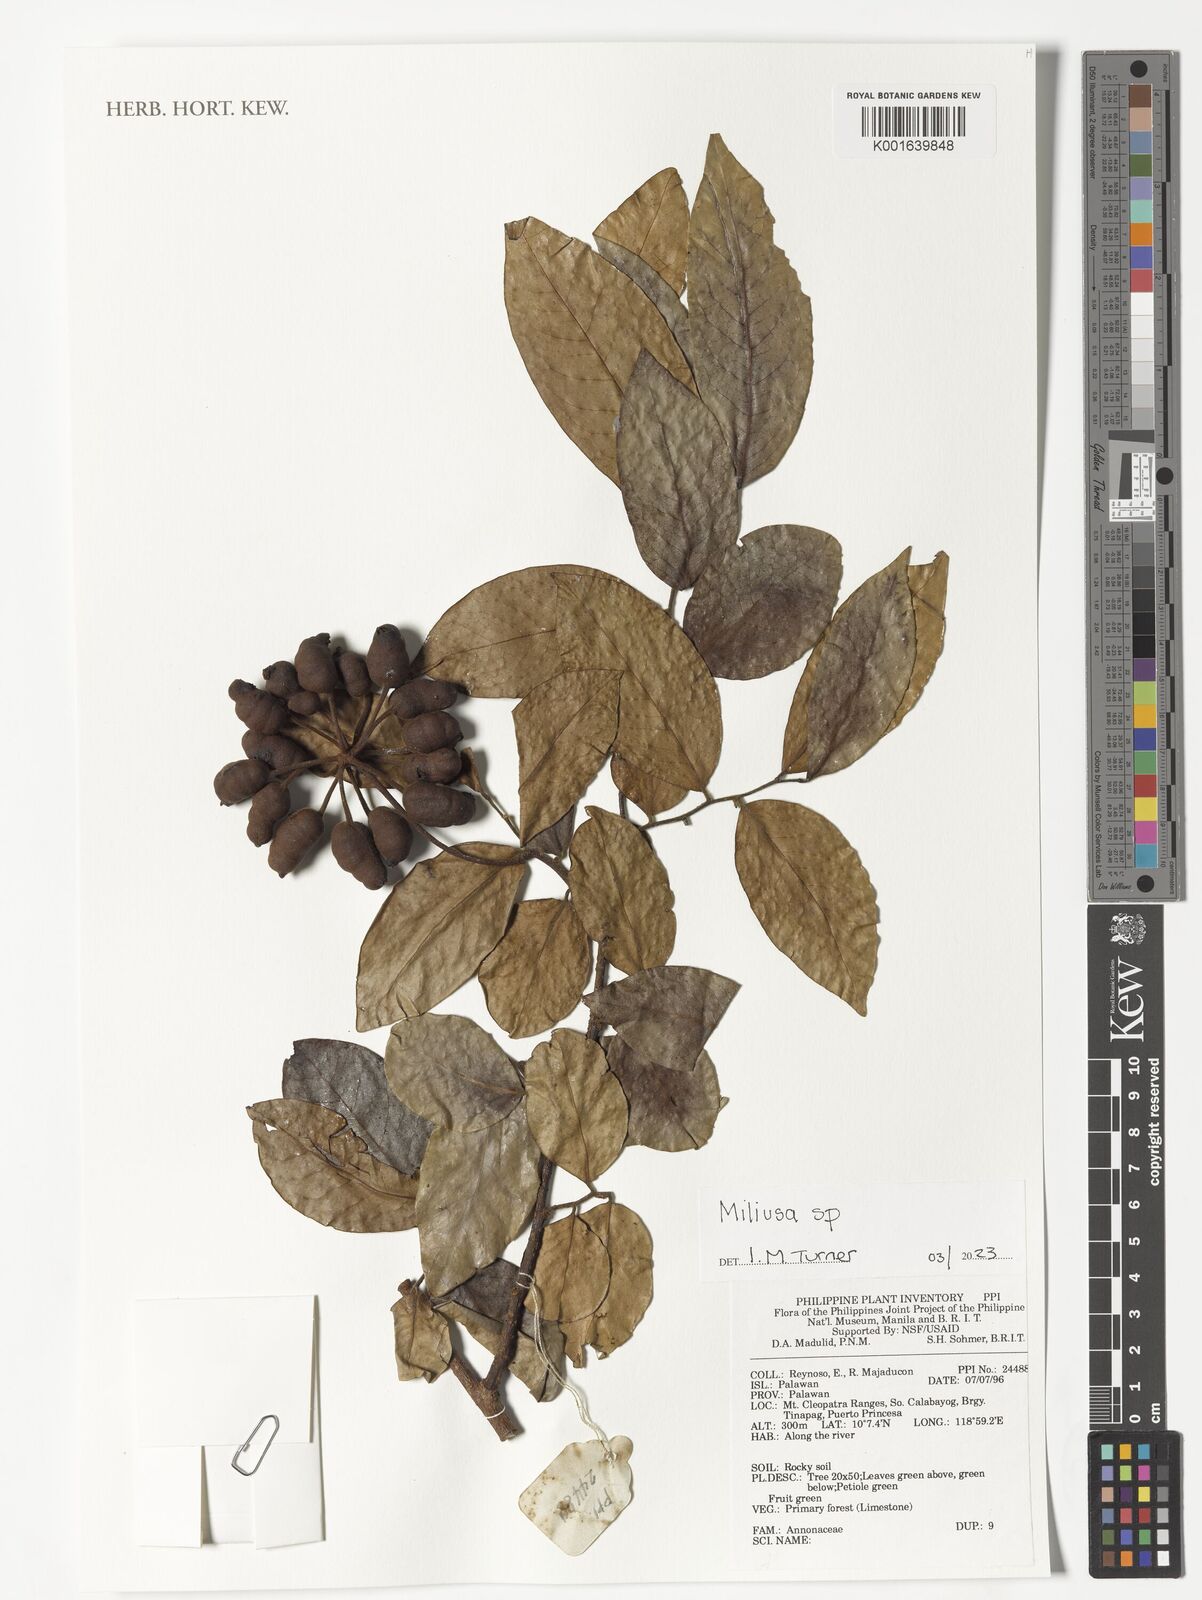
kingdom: Plantae
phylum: Tracheophyta
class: Magnoliopsida
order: Magnoliales
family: Annonaceae
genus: Miliusa
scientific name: Miliusa
